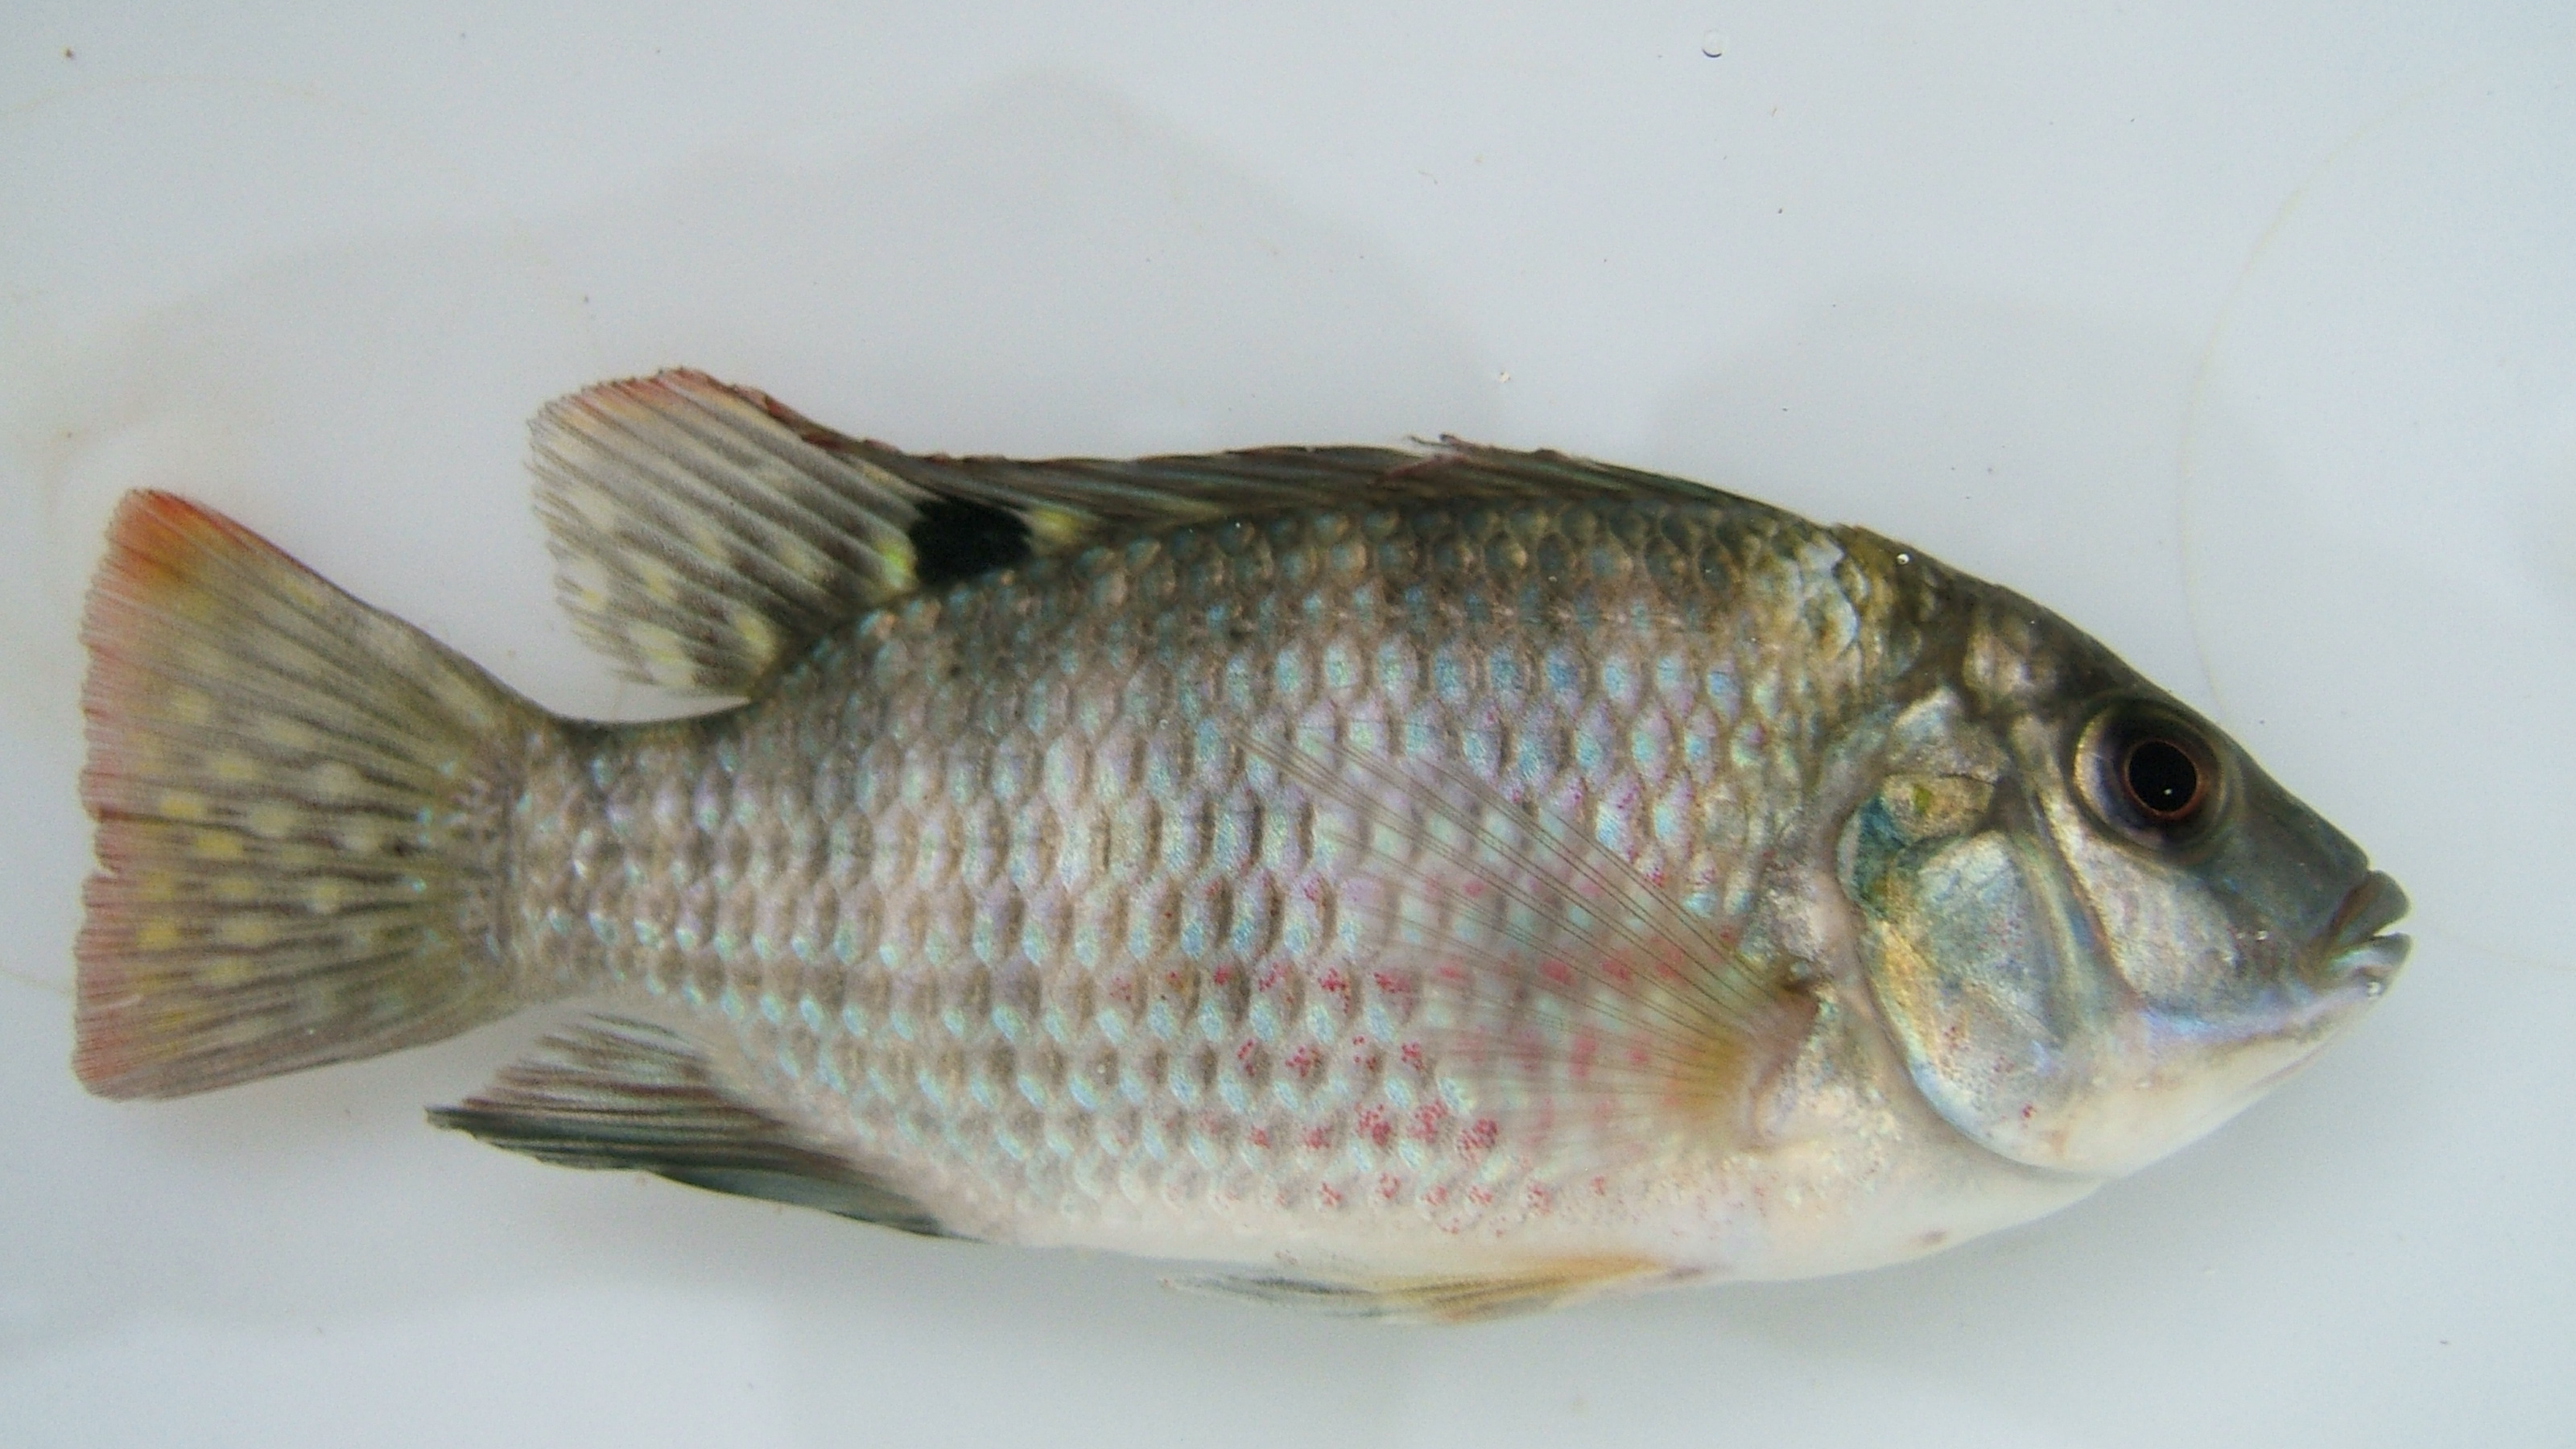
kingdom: Animalia
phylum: Chordata
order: Perciformes
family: Cichlidae
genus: Tilapia
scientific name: Tilapia
